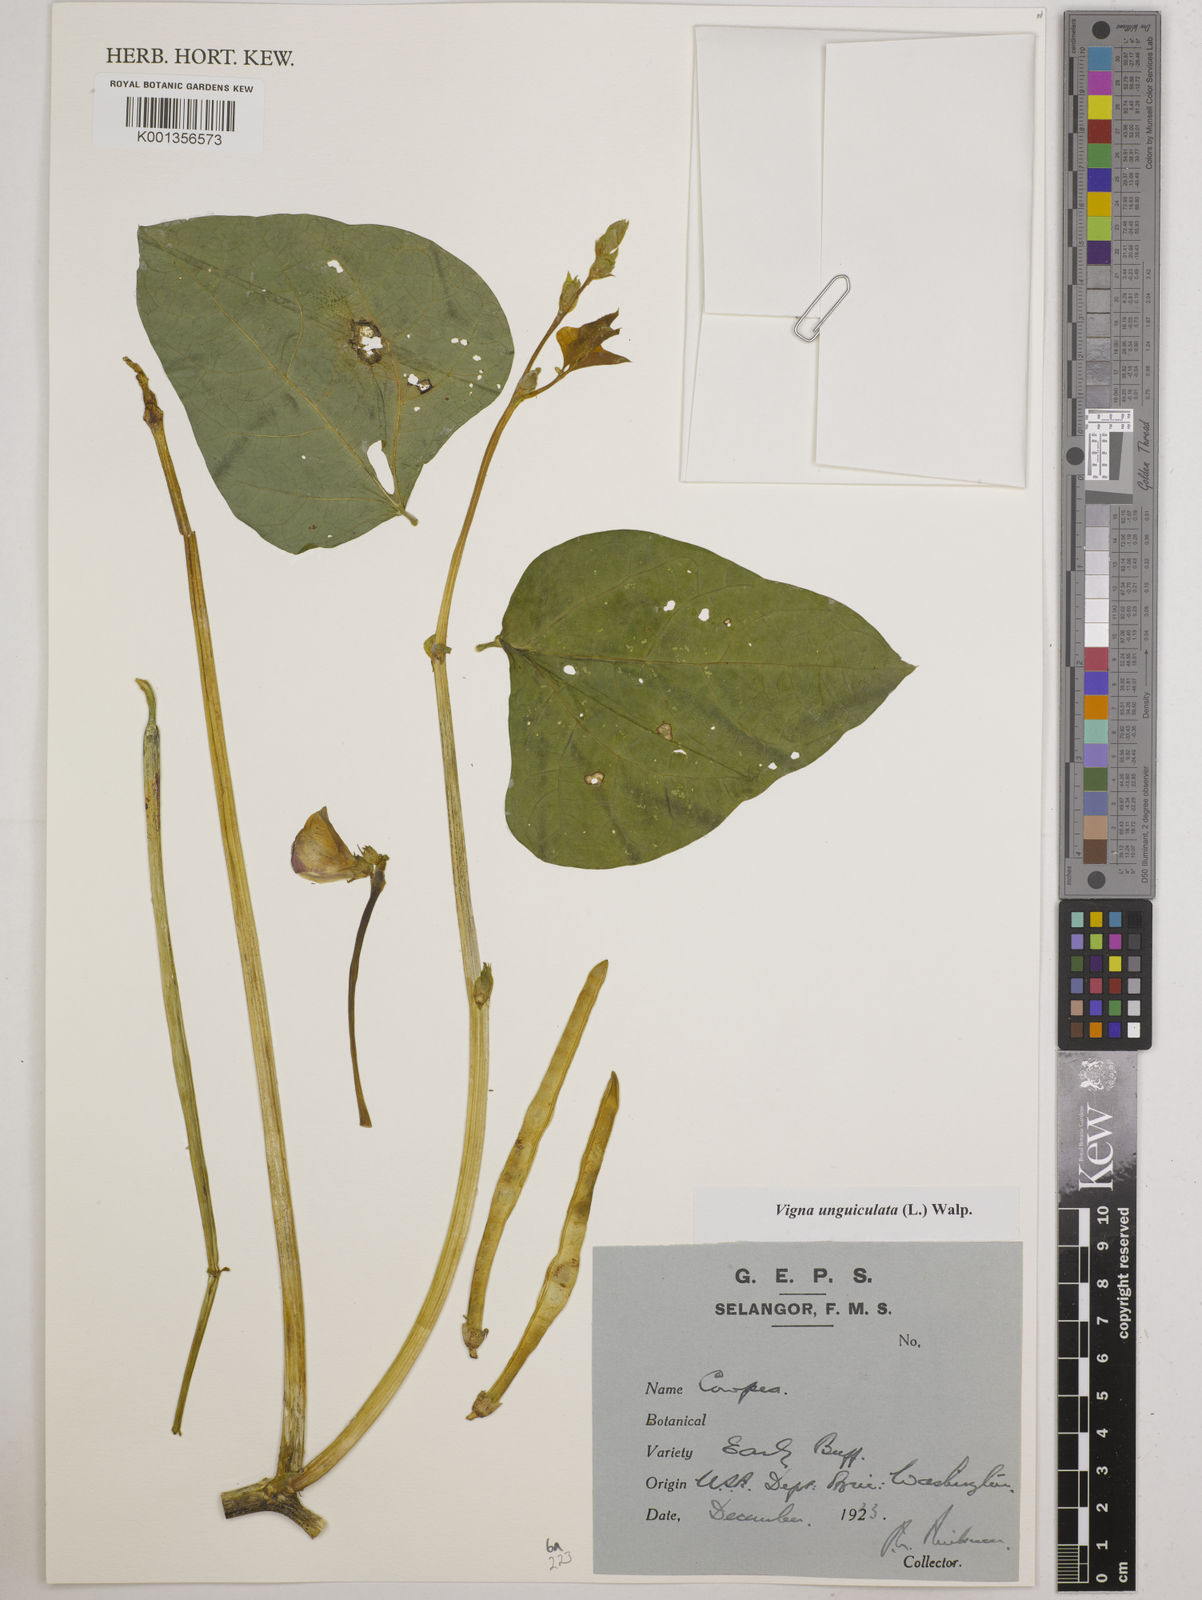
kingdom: Plantae
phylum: Tracheophyta
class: Magnoliopsida
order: Fabales
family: Fabaceae
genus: Vigna
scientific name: Vigna unguiculata
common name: Cowpea
